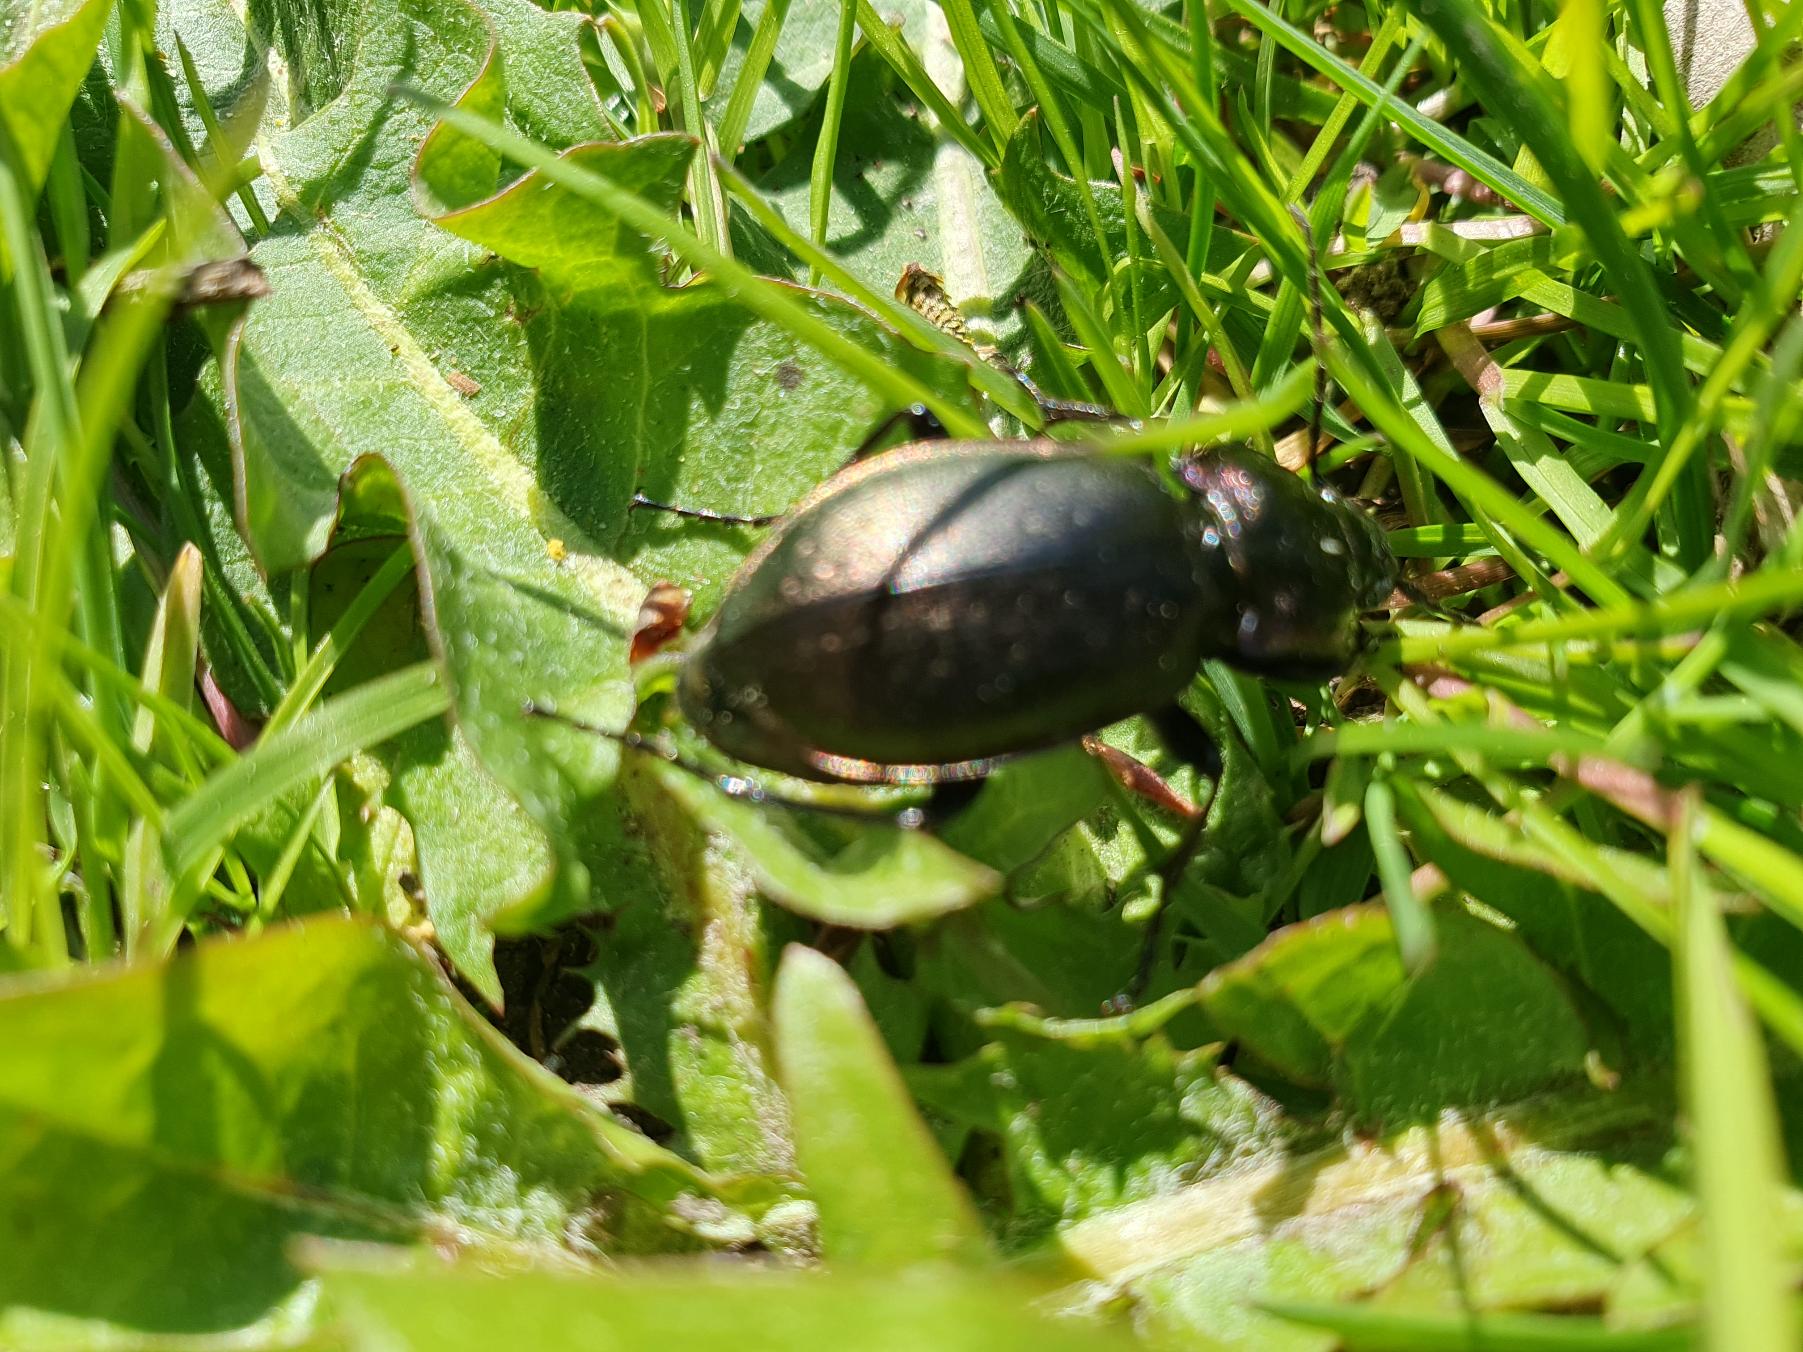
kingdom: Animalia
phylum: Arthropoda
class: Insecta
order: Coleoptera
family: Carabidae
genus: Carabus
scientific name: Carabus nemoralis
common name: Kratløber
